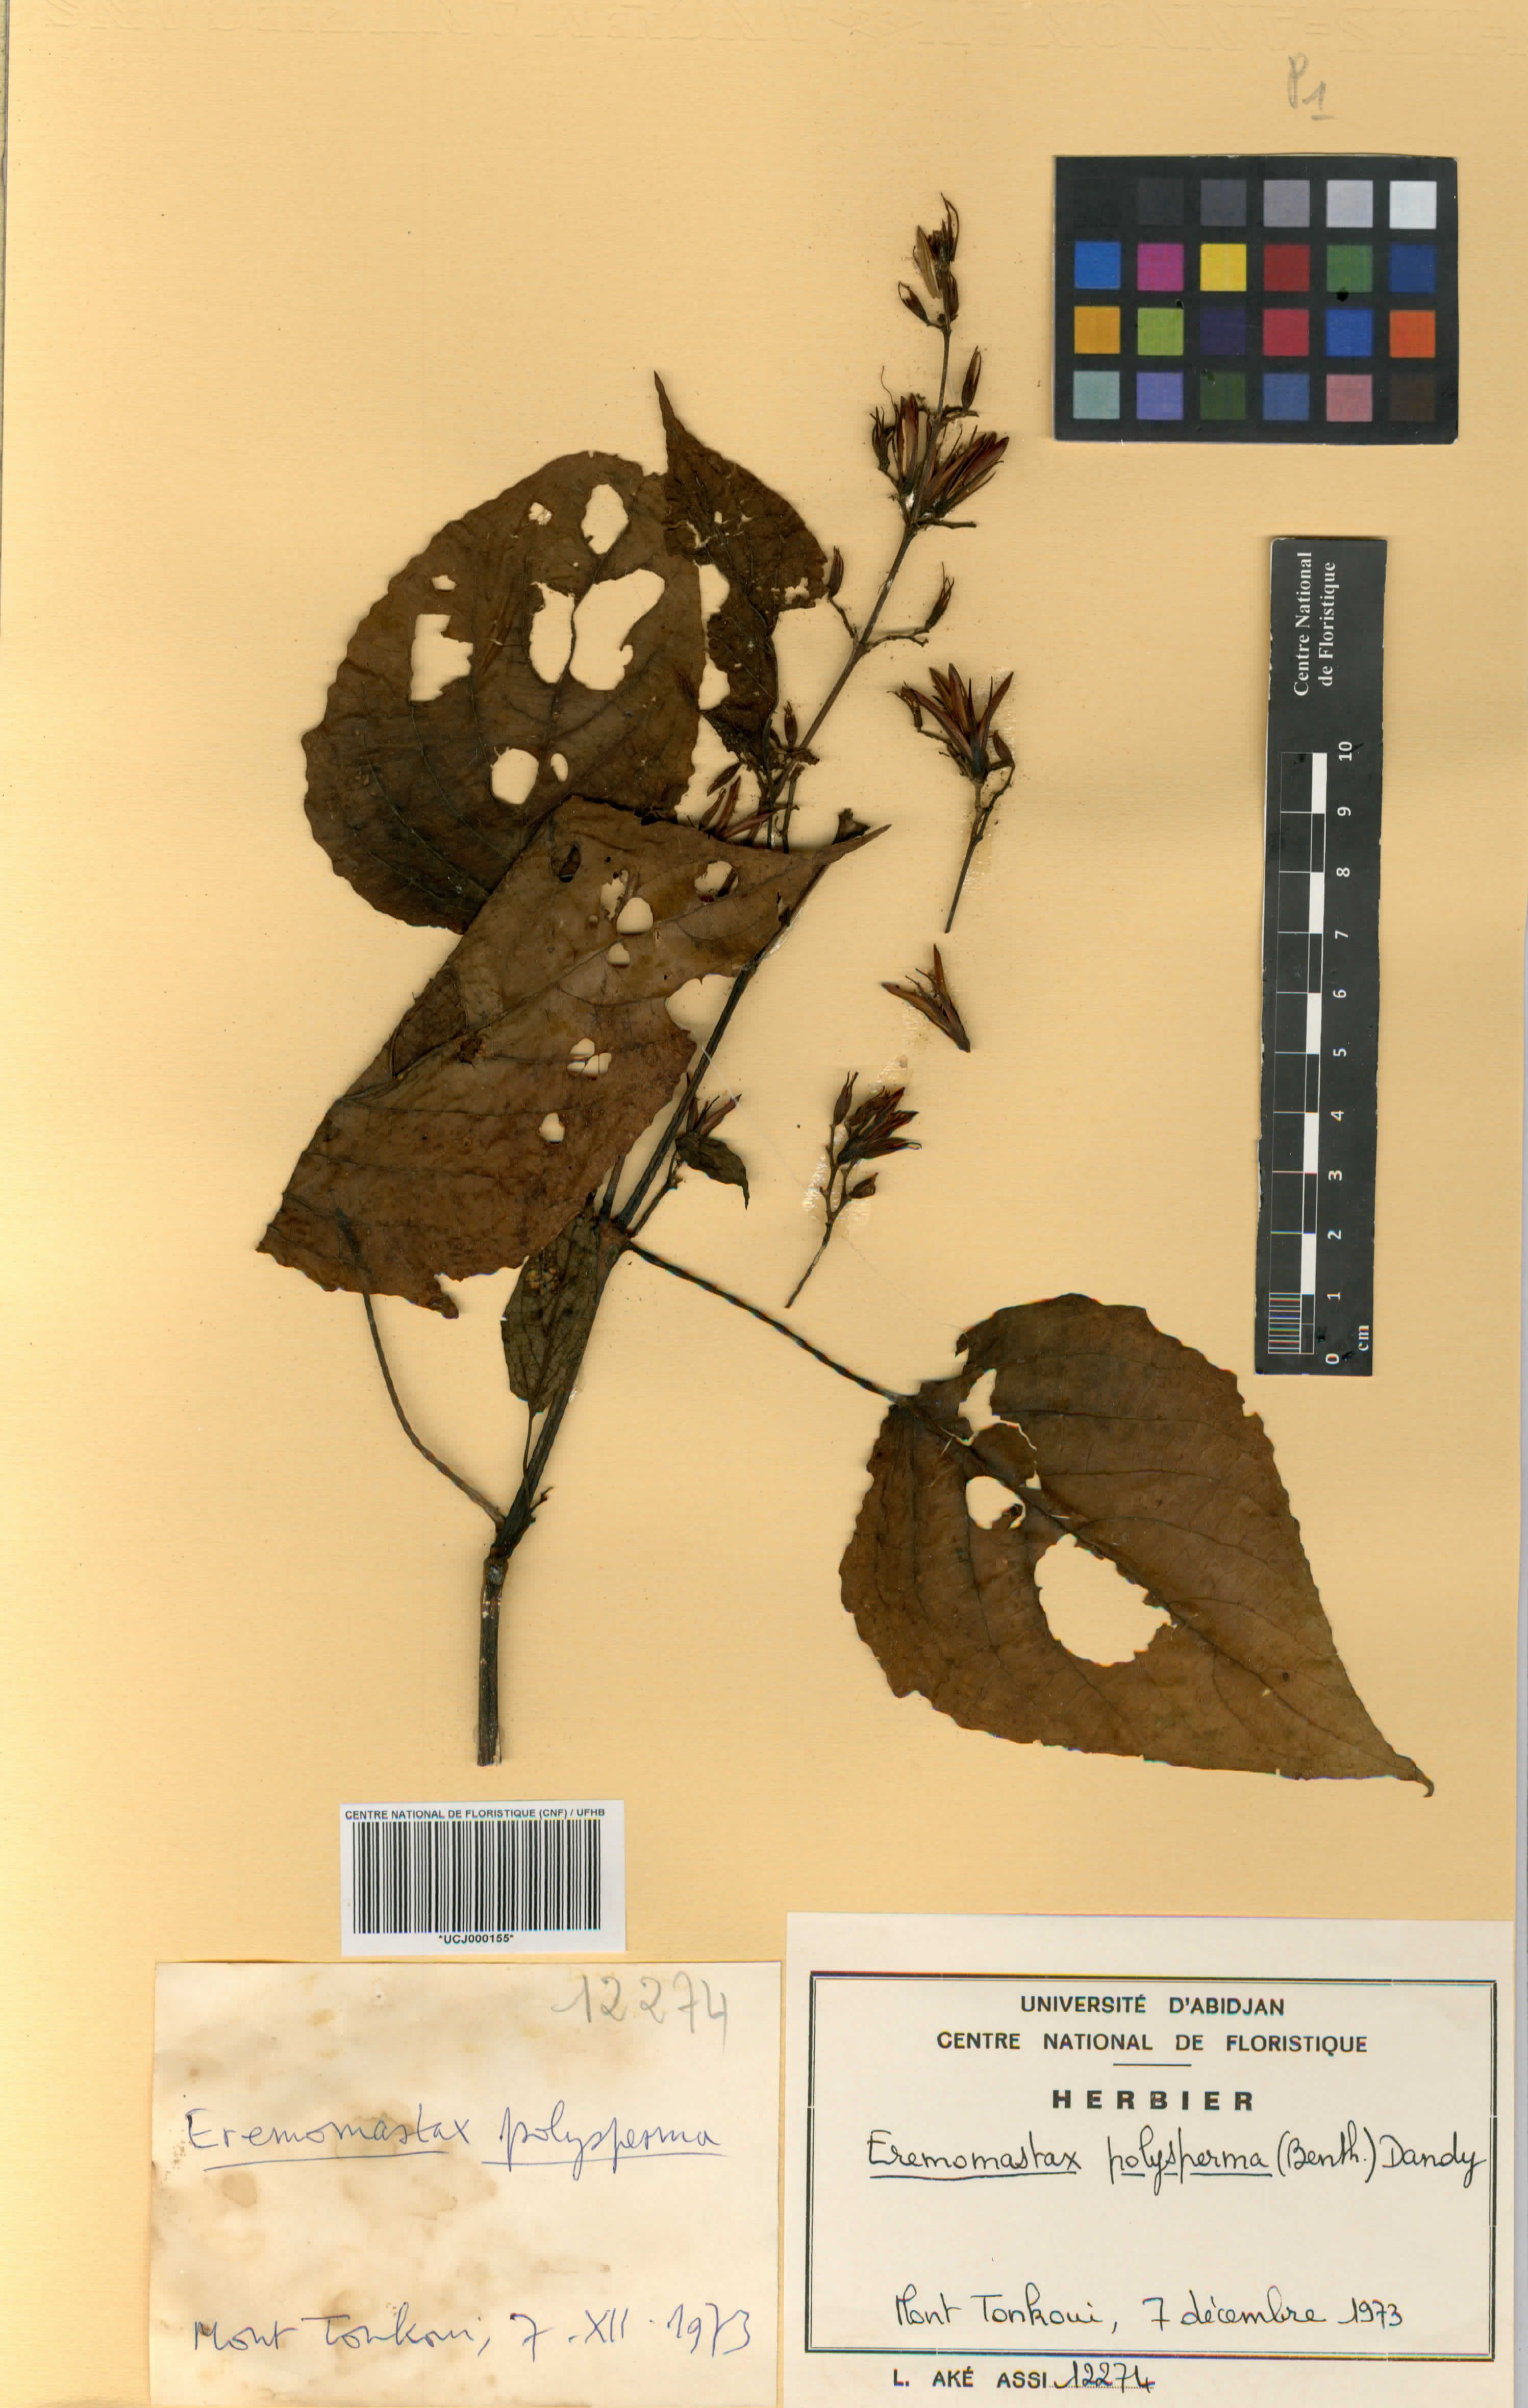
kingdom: Plantae
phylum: Tracheophyta
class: Magnoliopsida
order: Lamiales
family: Acanthaceae
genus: Eremomastax
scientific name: Eremomastax speciosa
